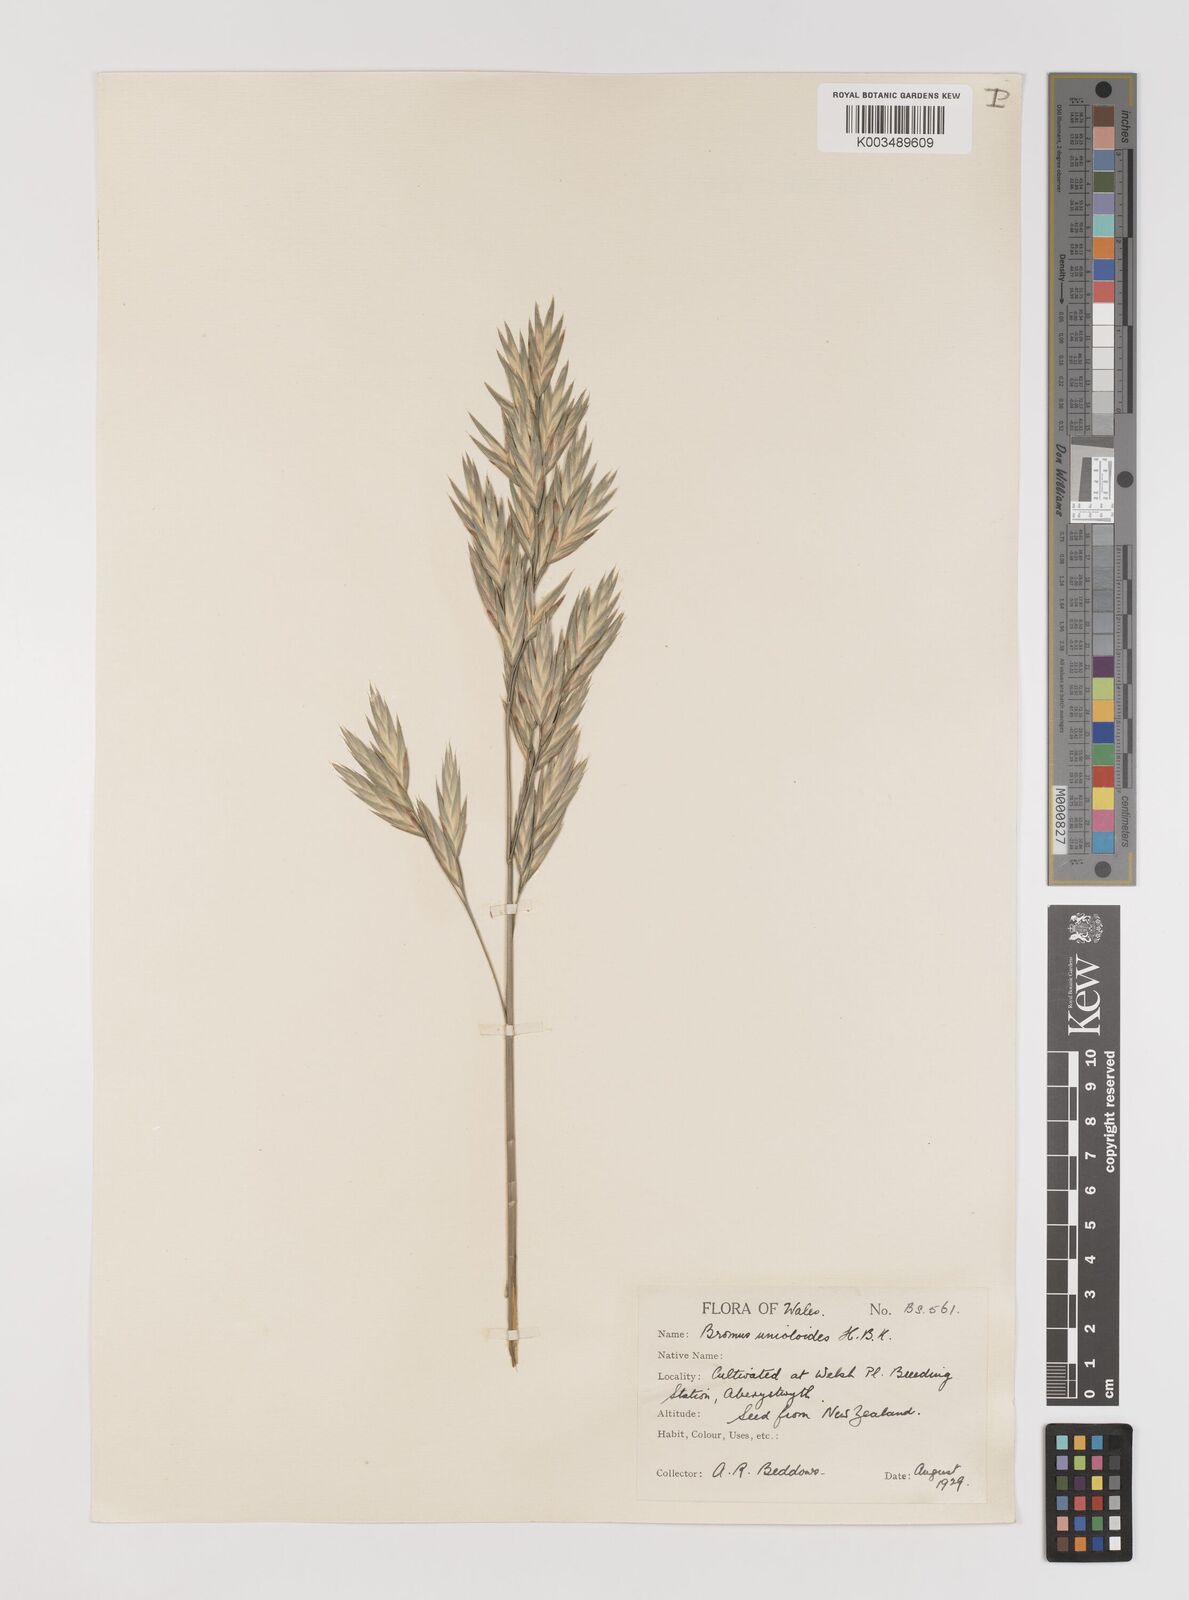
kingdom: Plantae
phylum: Tracheophyta
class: Liliopsida
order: Poales
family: Poaceae
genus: Bromus
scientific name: Bromus catharticus
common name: Rescuegrass
